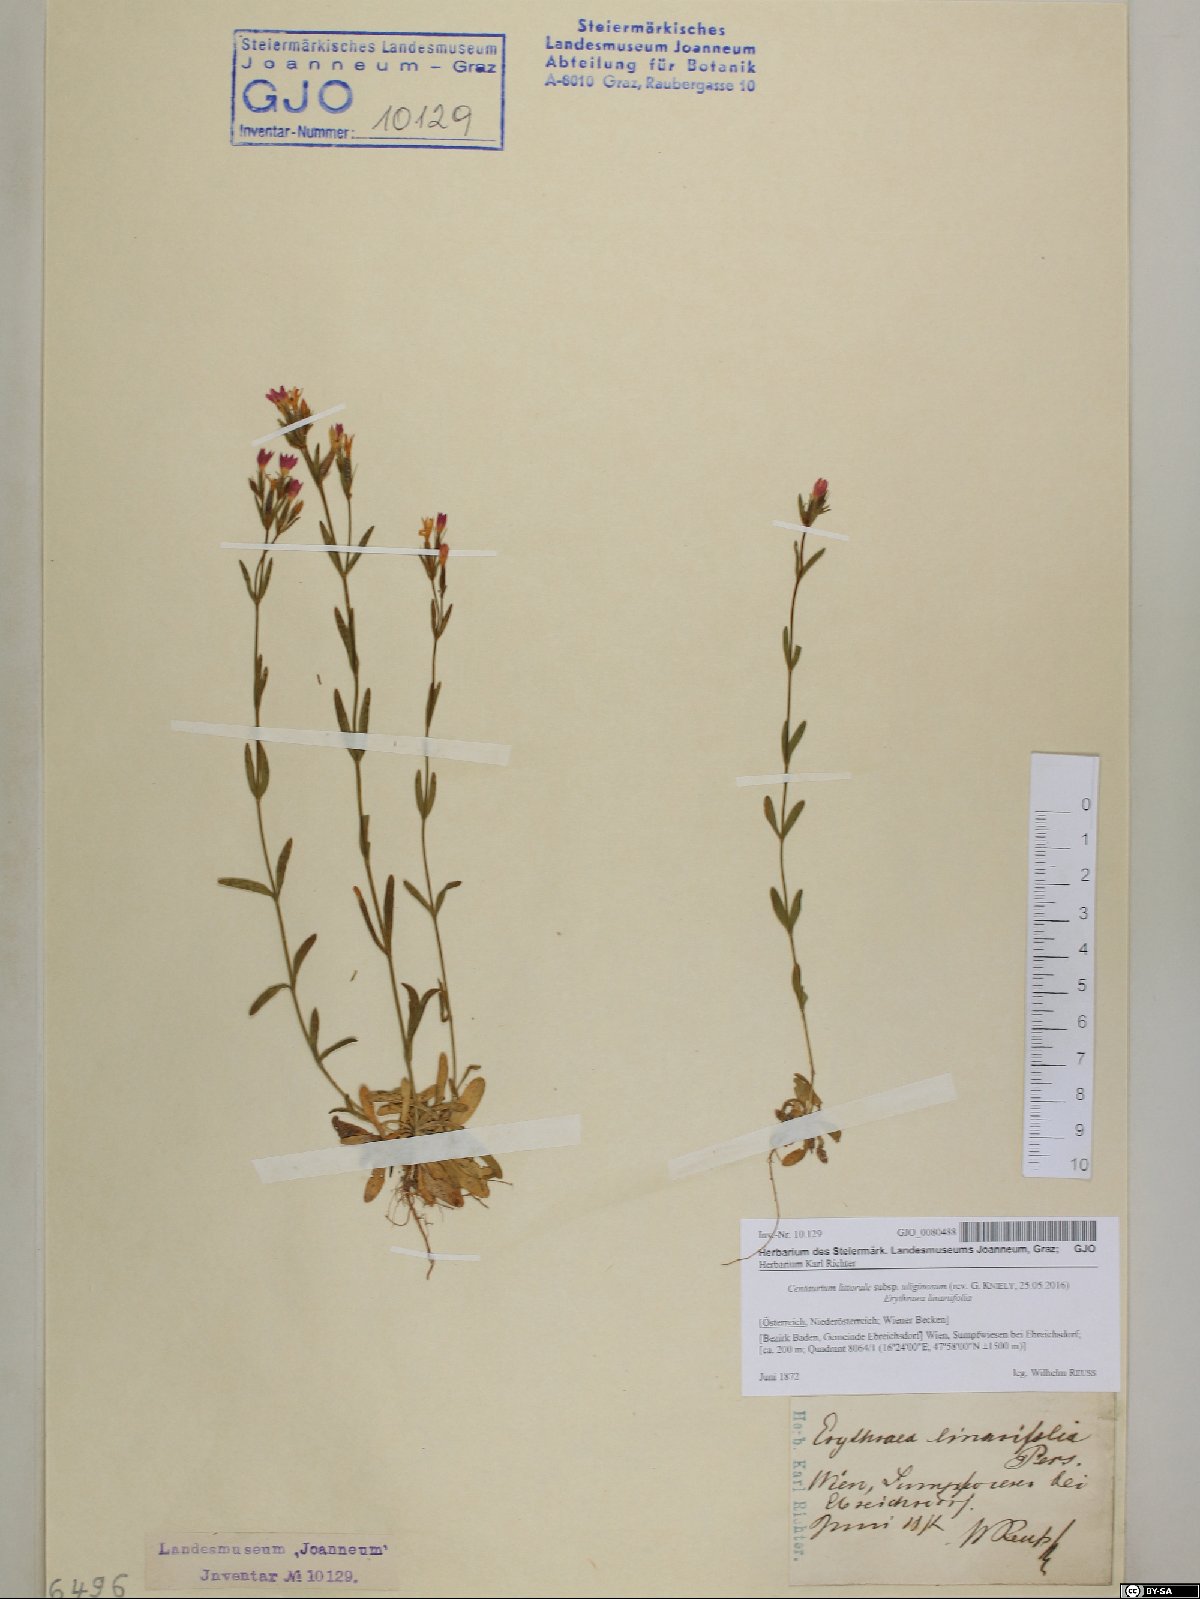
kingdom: Plantae
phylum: Tracheophyta
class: Magnoliopsida
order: Gentianales
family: Gentianaceae
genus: Centaurium
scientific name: Centaurium littorale
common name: Seaside centaury
